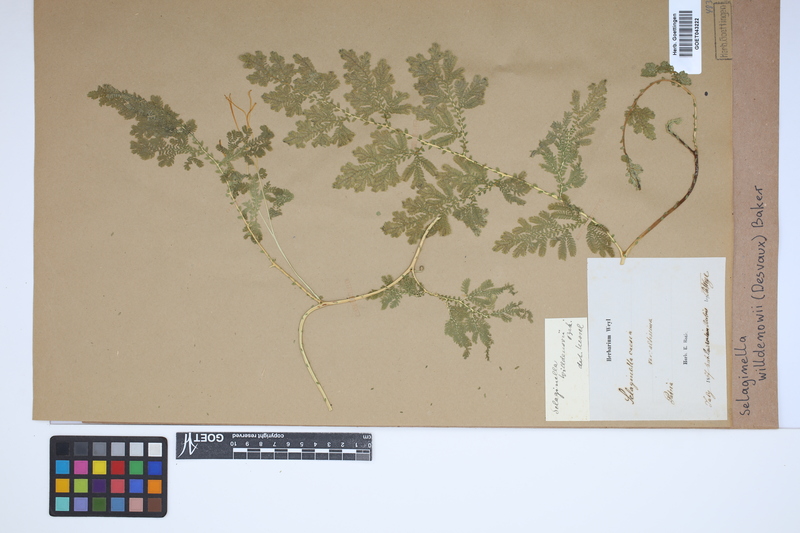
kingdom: Plantae
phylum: Tracheophyta
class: Lycopodiopsida
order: Selaginellales
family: Selaginellaceae
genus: Selaginella
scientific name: Selaginella willdenowii
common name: Willdenow's spikemoss
